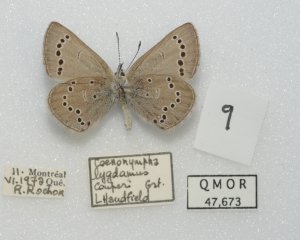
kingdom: Animalia
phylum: Arthropoda
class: Insecta
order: Lepidoptera
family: Lycaenidae
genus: Glaucopsyche
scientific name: Glaucopsyche lygdamus
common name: Silvery Blue
